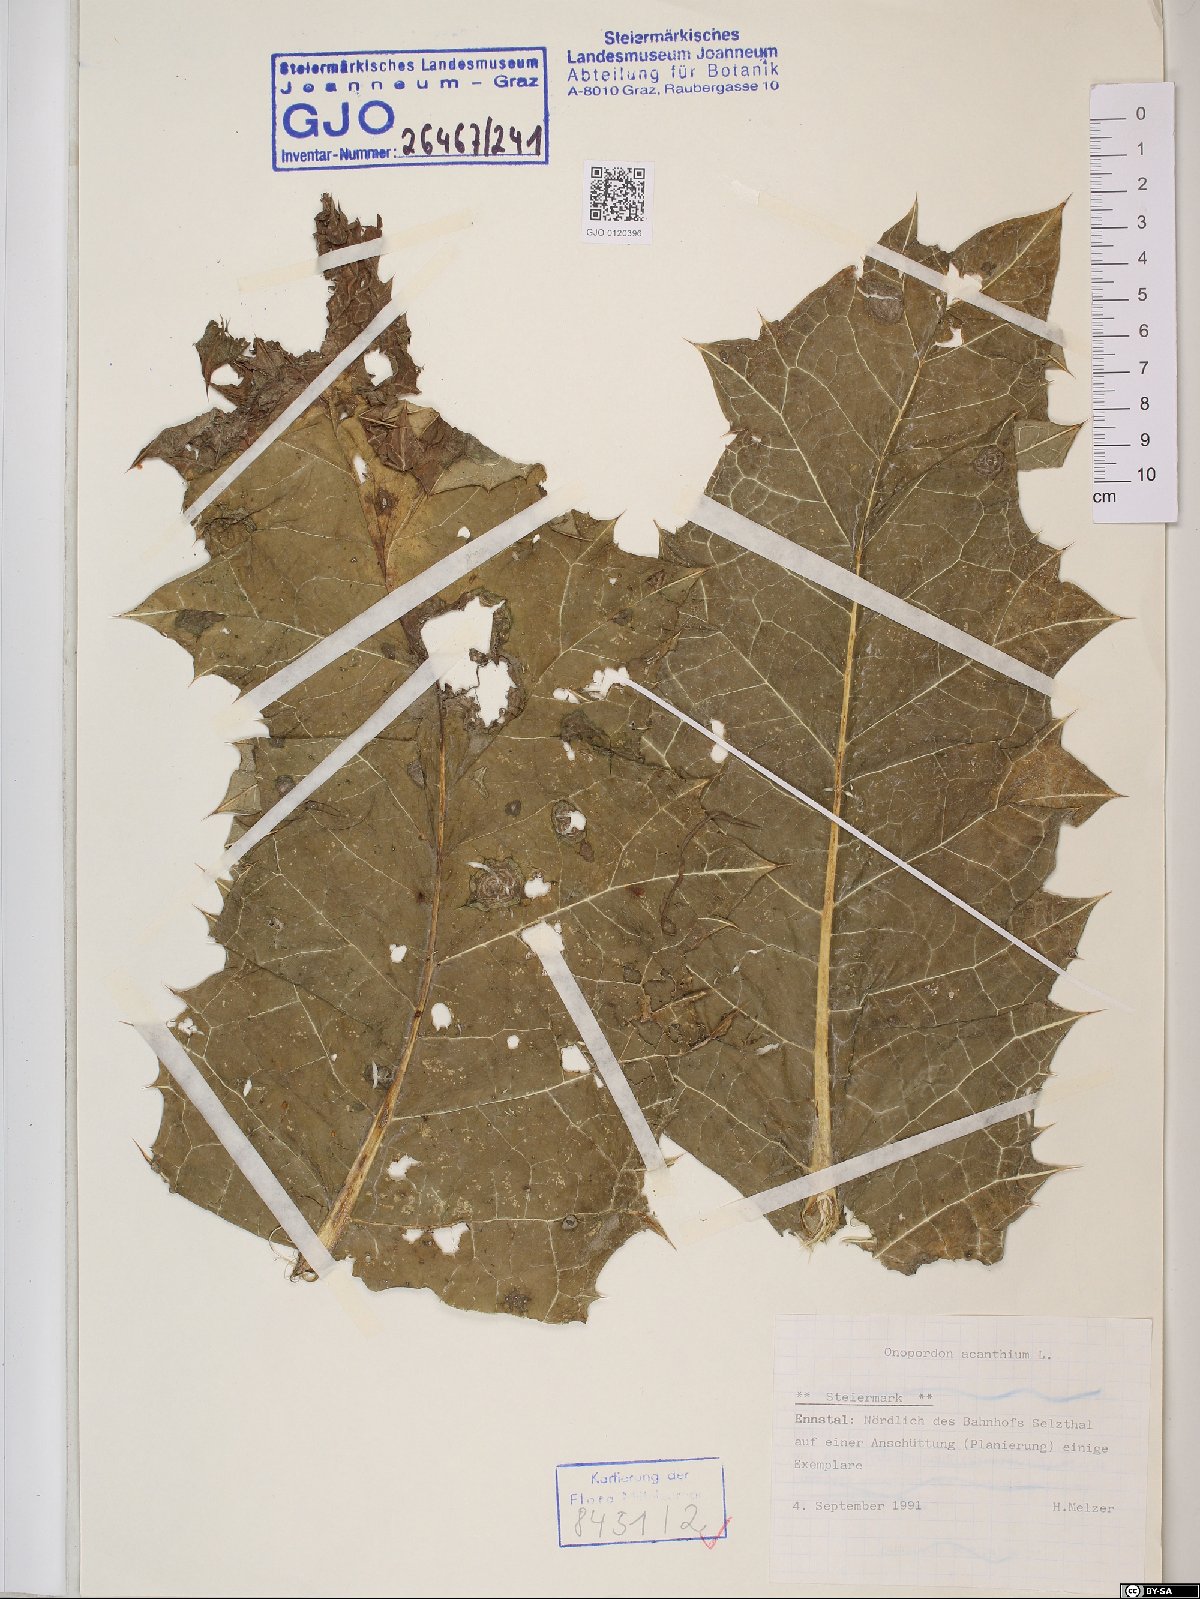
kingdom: Plantae
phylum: Tracheophyta
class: Magnoliopsida
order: Asterales
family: Asteraceae
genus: Onopordum
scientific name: Onopordum acanthium
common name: Scotch thistle
